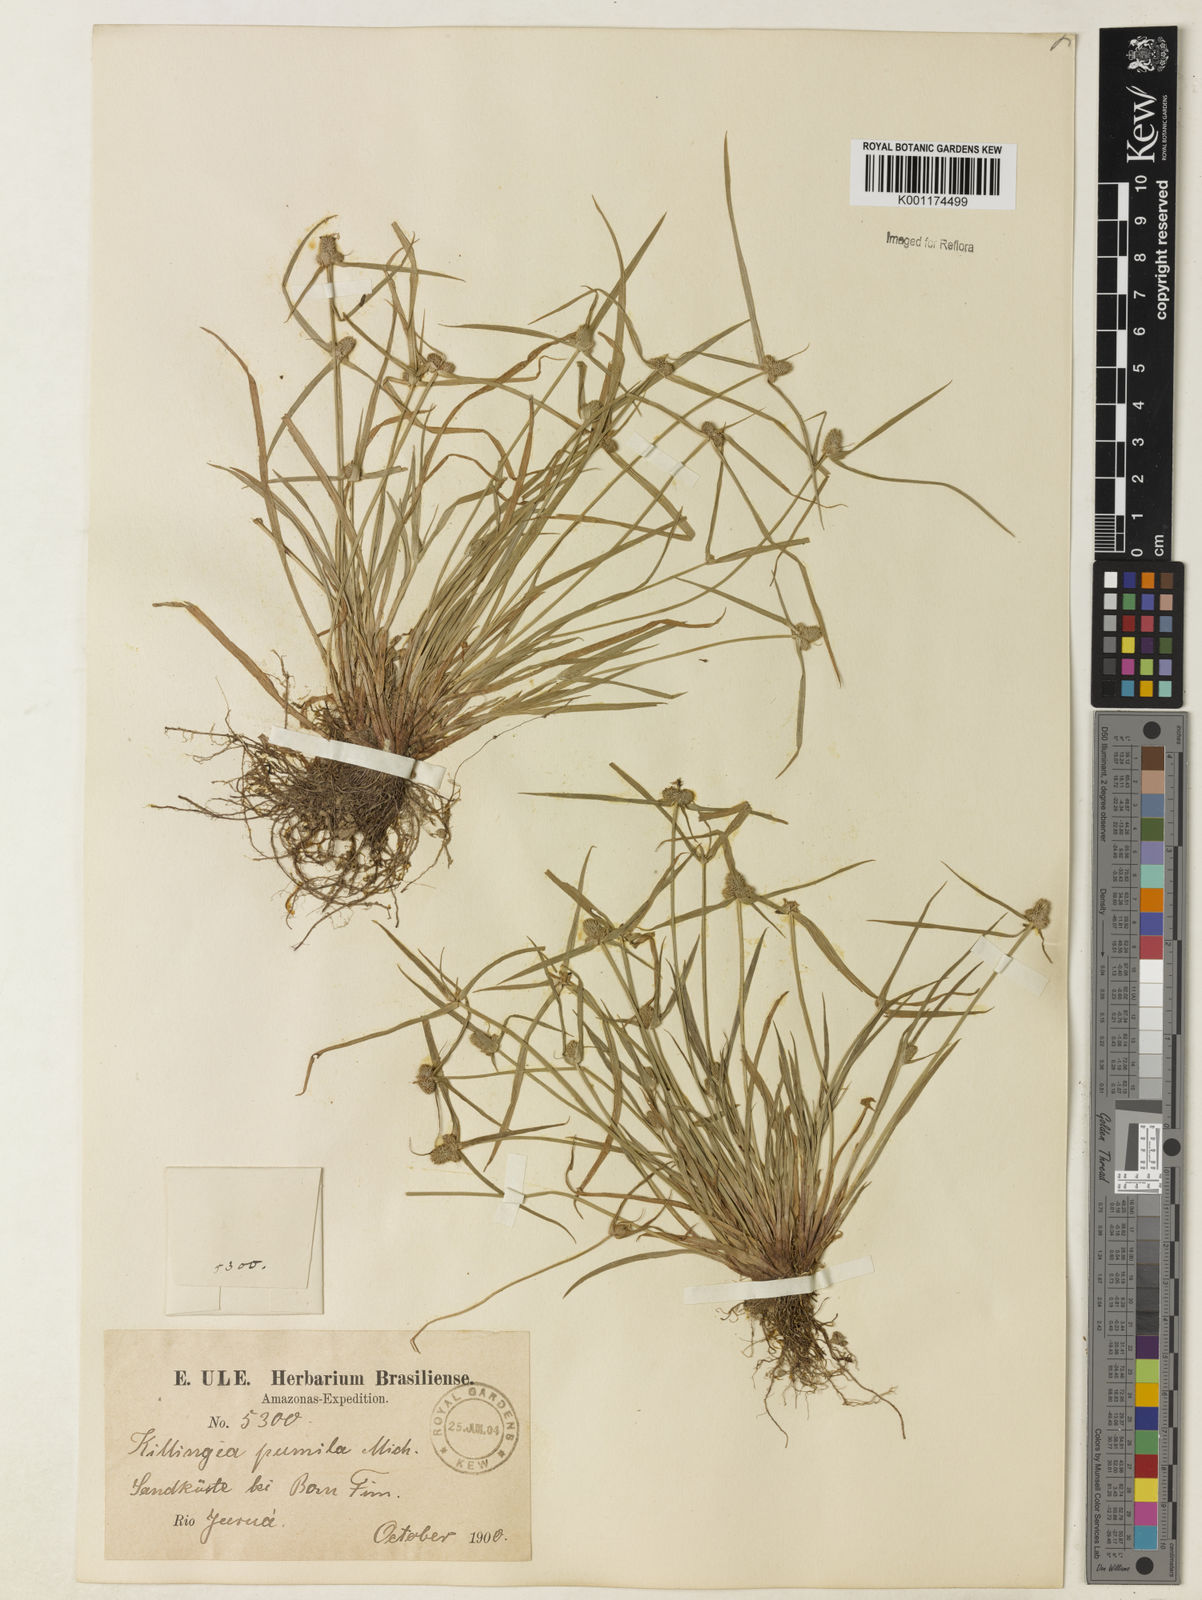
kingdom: Plantae
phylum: Tracheophyta
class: Liliopsida
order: Poales
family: Cyperaceae
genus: Cyperus
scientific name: Cyperus
